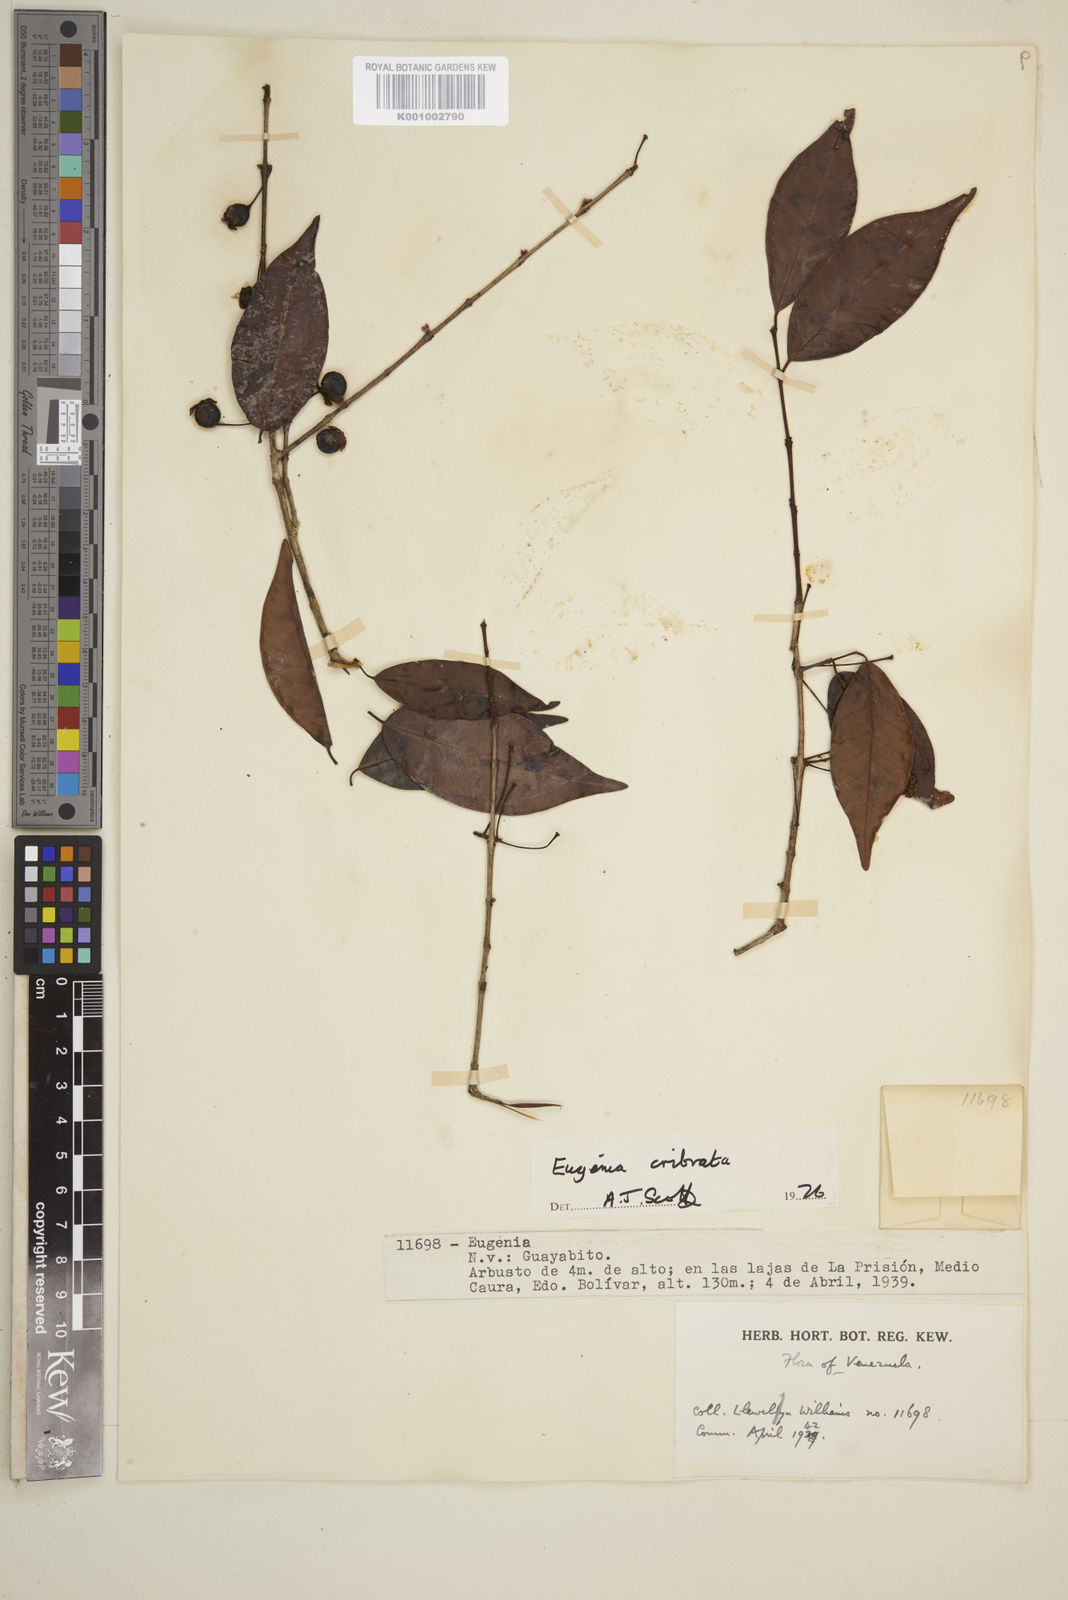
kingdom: Plantae
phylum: Tracheophyta
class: Magnoliopsida
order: Myrtales
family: Myrtaceae
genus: Eugenia
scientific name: Eugenia cribrata
